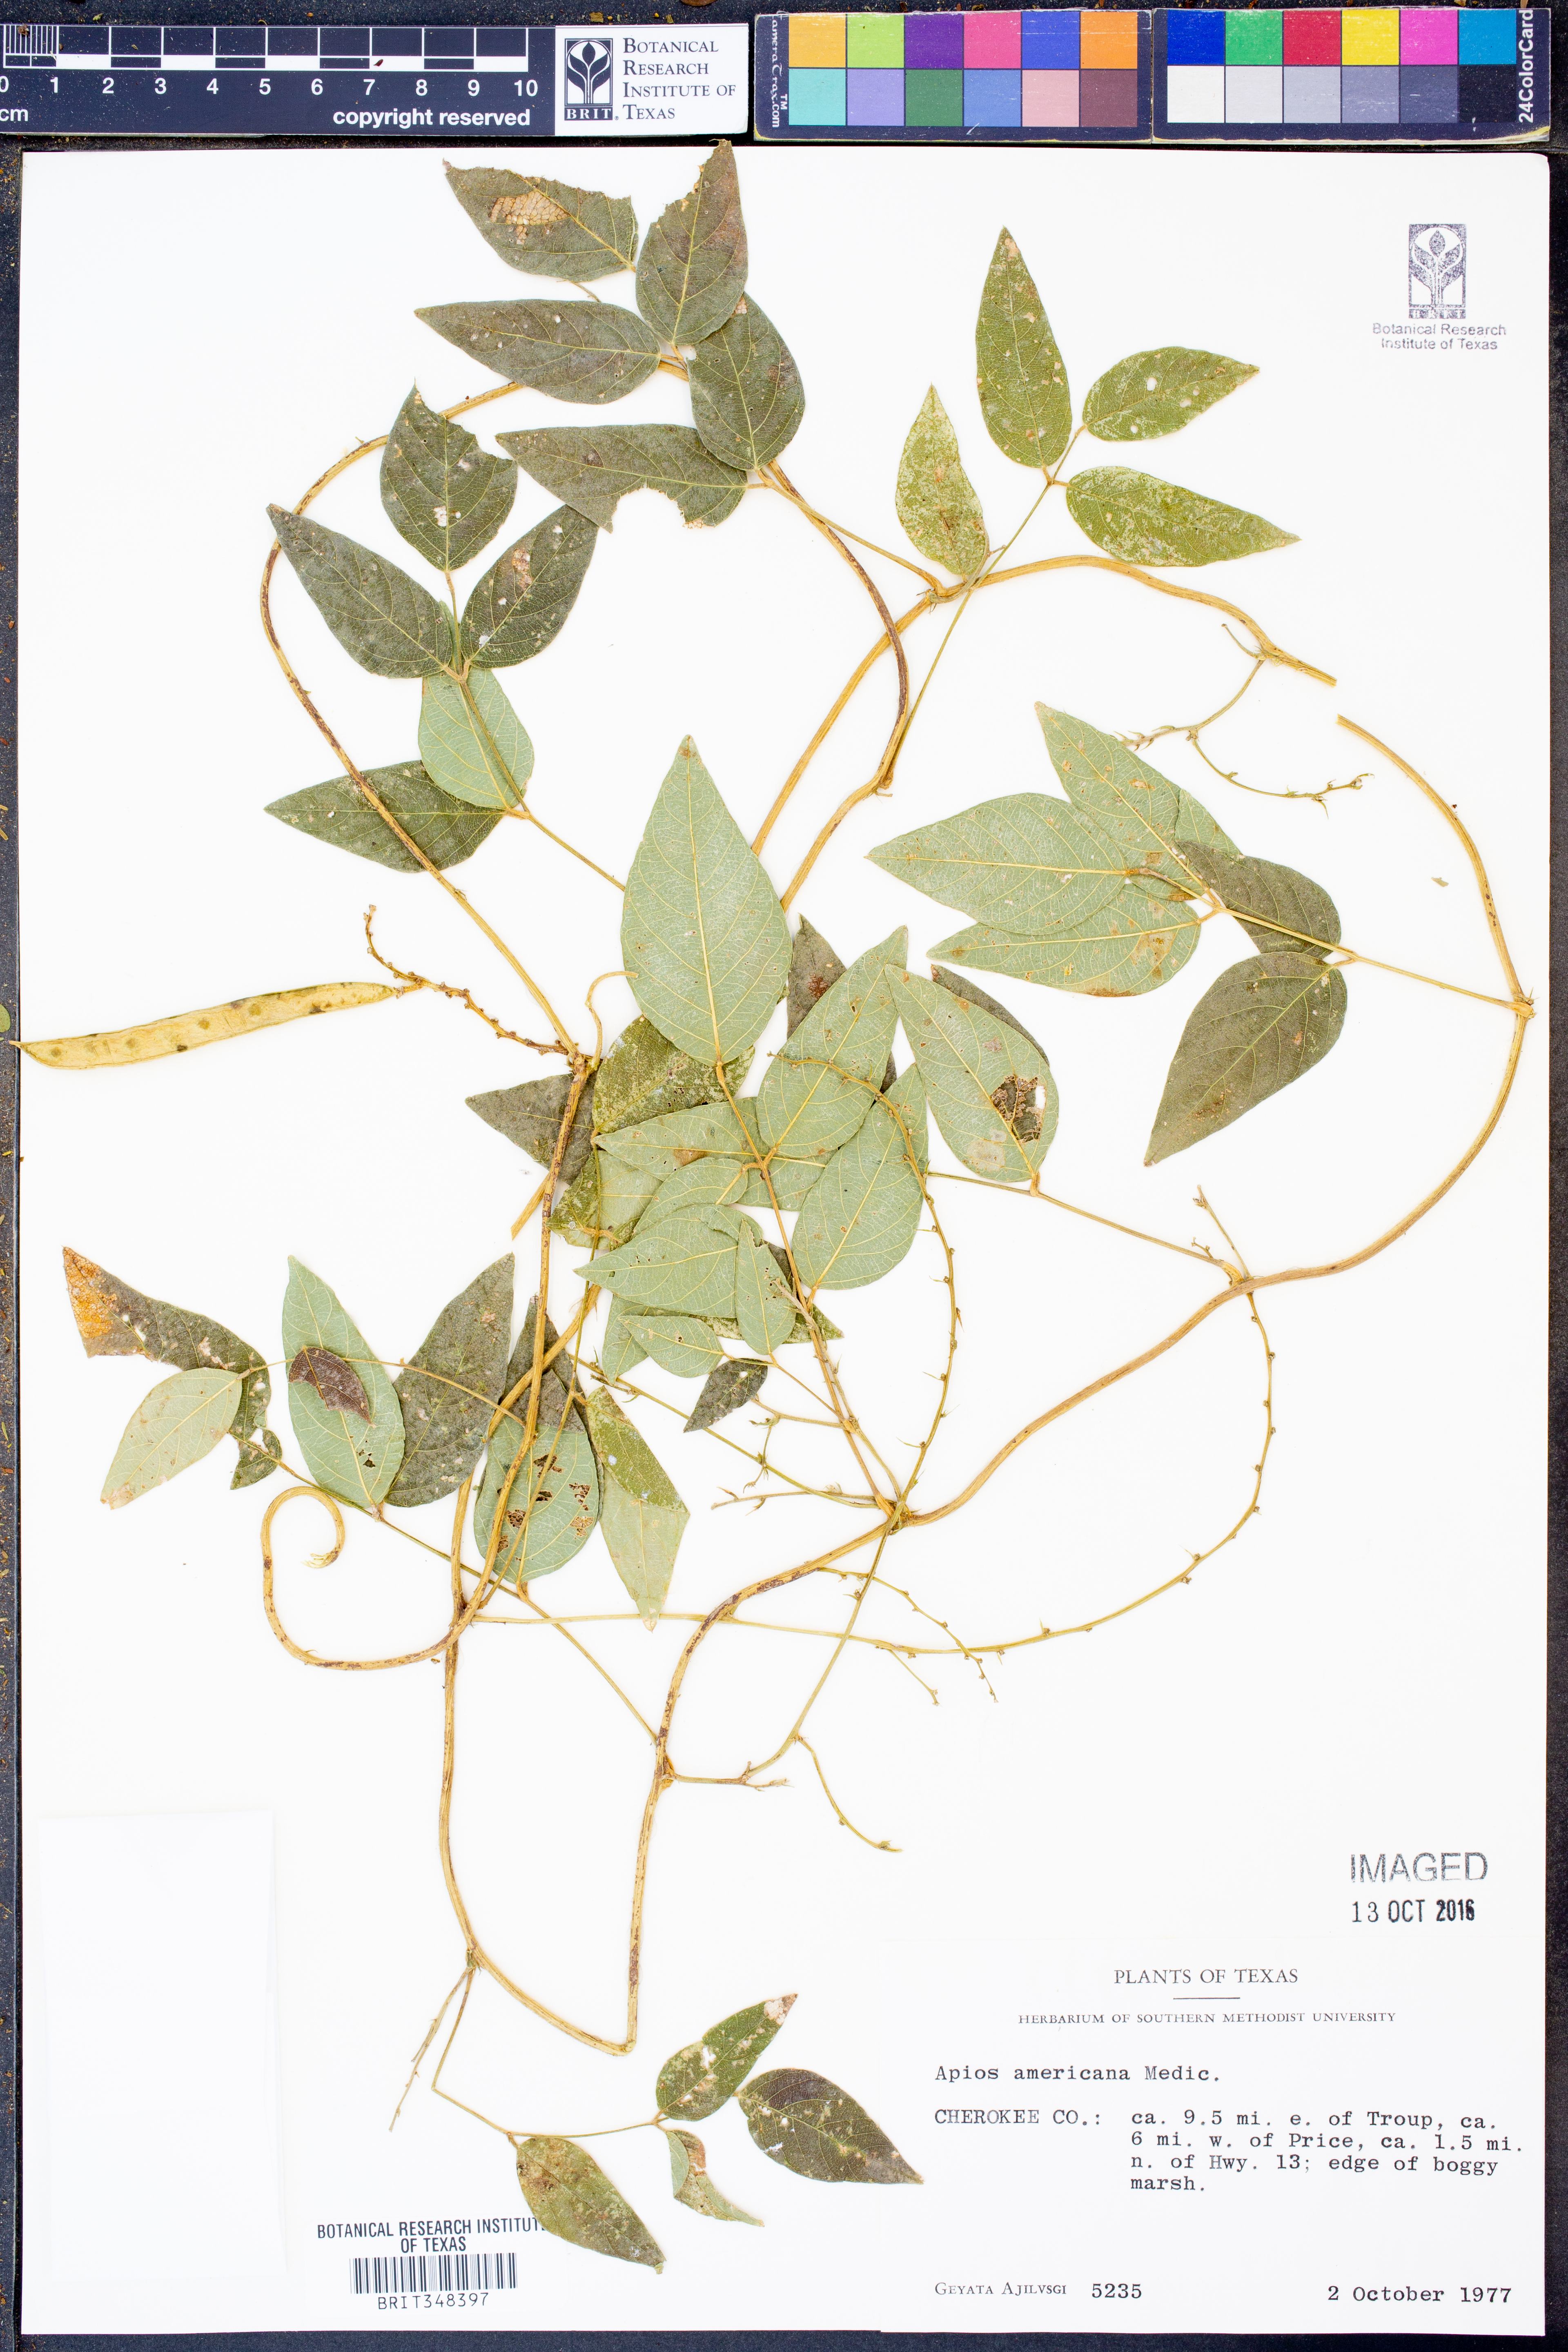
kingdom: Plantae
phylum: Tracheophyta
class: Magnoliopsida
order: Fabales
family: Fabaceae
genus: Apios
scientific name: Apios americana
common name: American potato-bean
